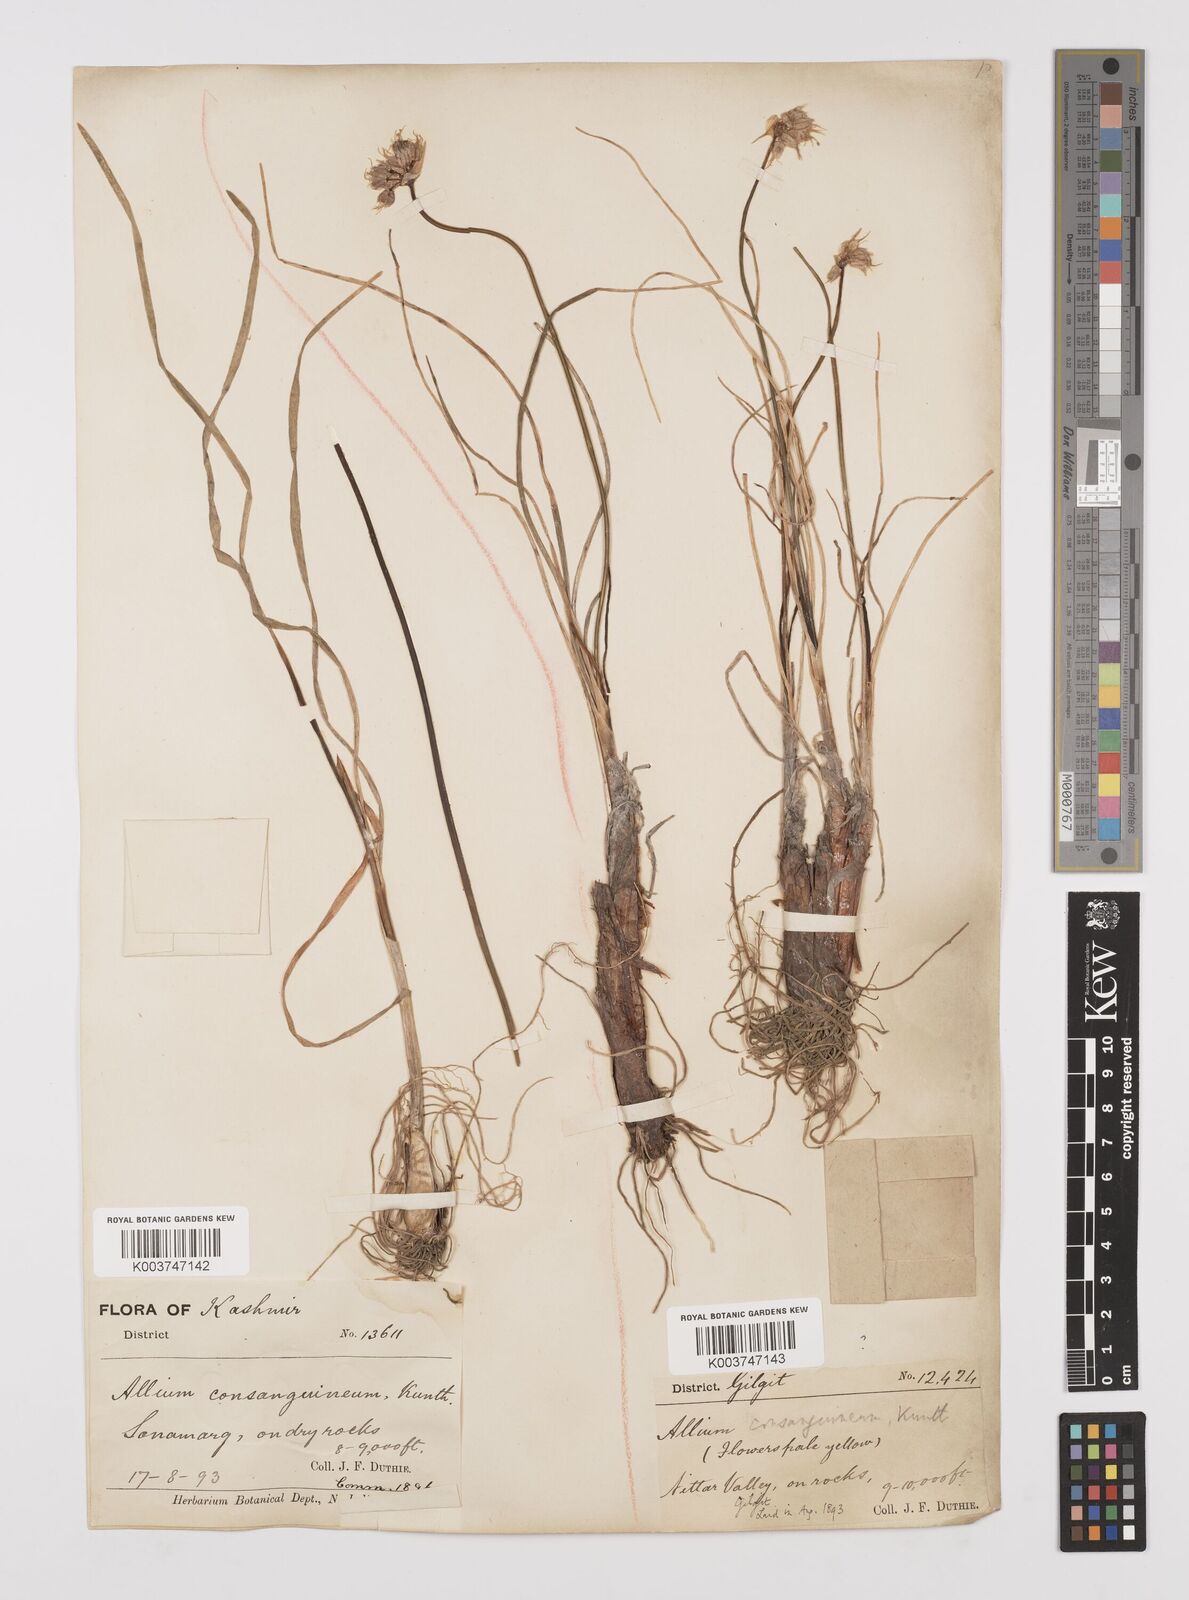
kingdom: Plantae
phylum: Tracheophyta
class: Liliopsida
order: Asparagales
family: Amaryllidaceae
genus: Allium
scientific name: Allium consanguineum
